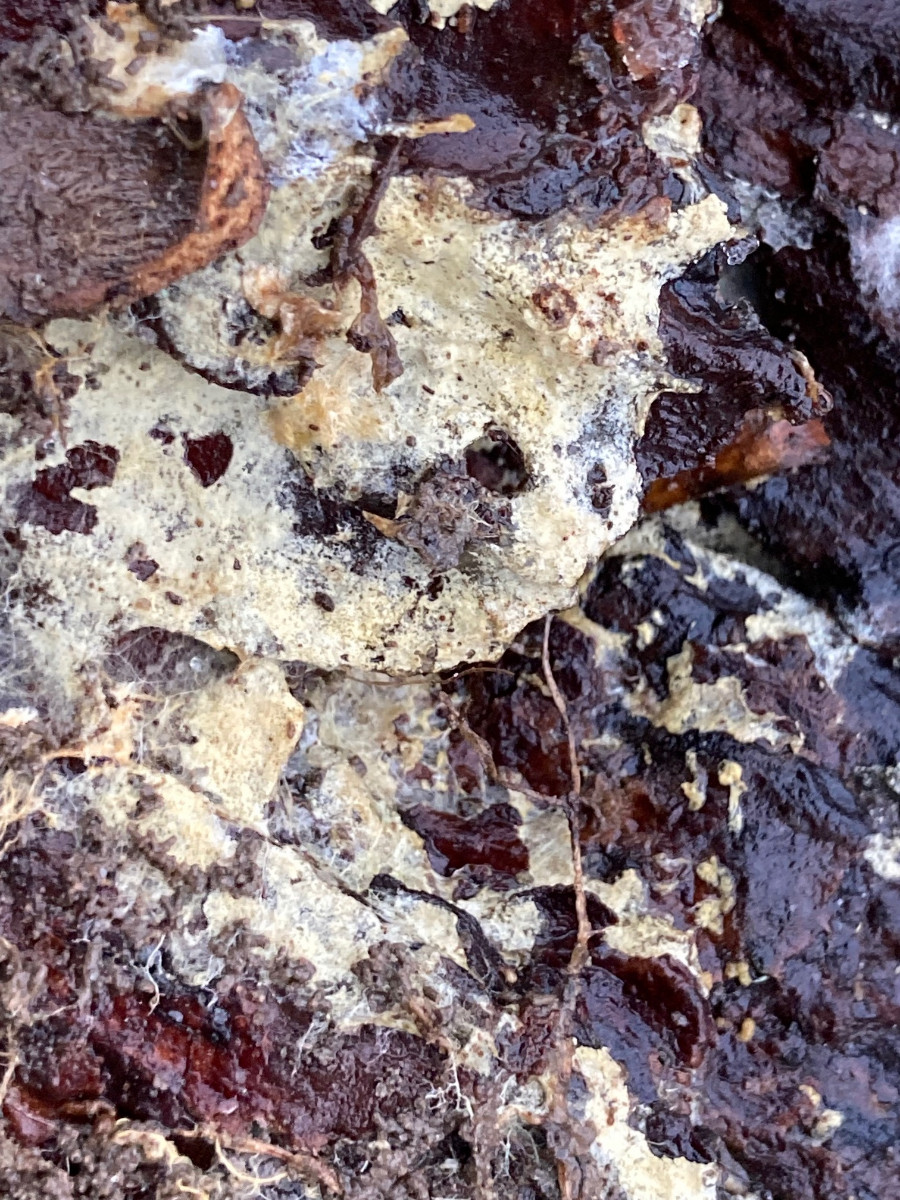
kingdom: Fungi
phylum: Basidiomycota
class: Agaricomycetes
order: Atheliales
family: Atheliaceae
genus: Leptosporomyces
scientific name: Leptosporomyces fuscostratus
